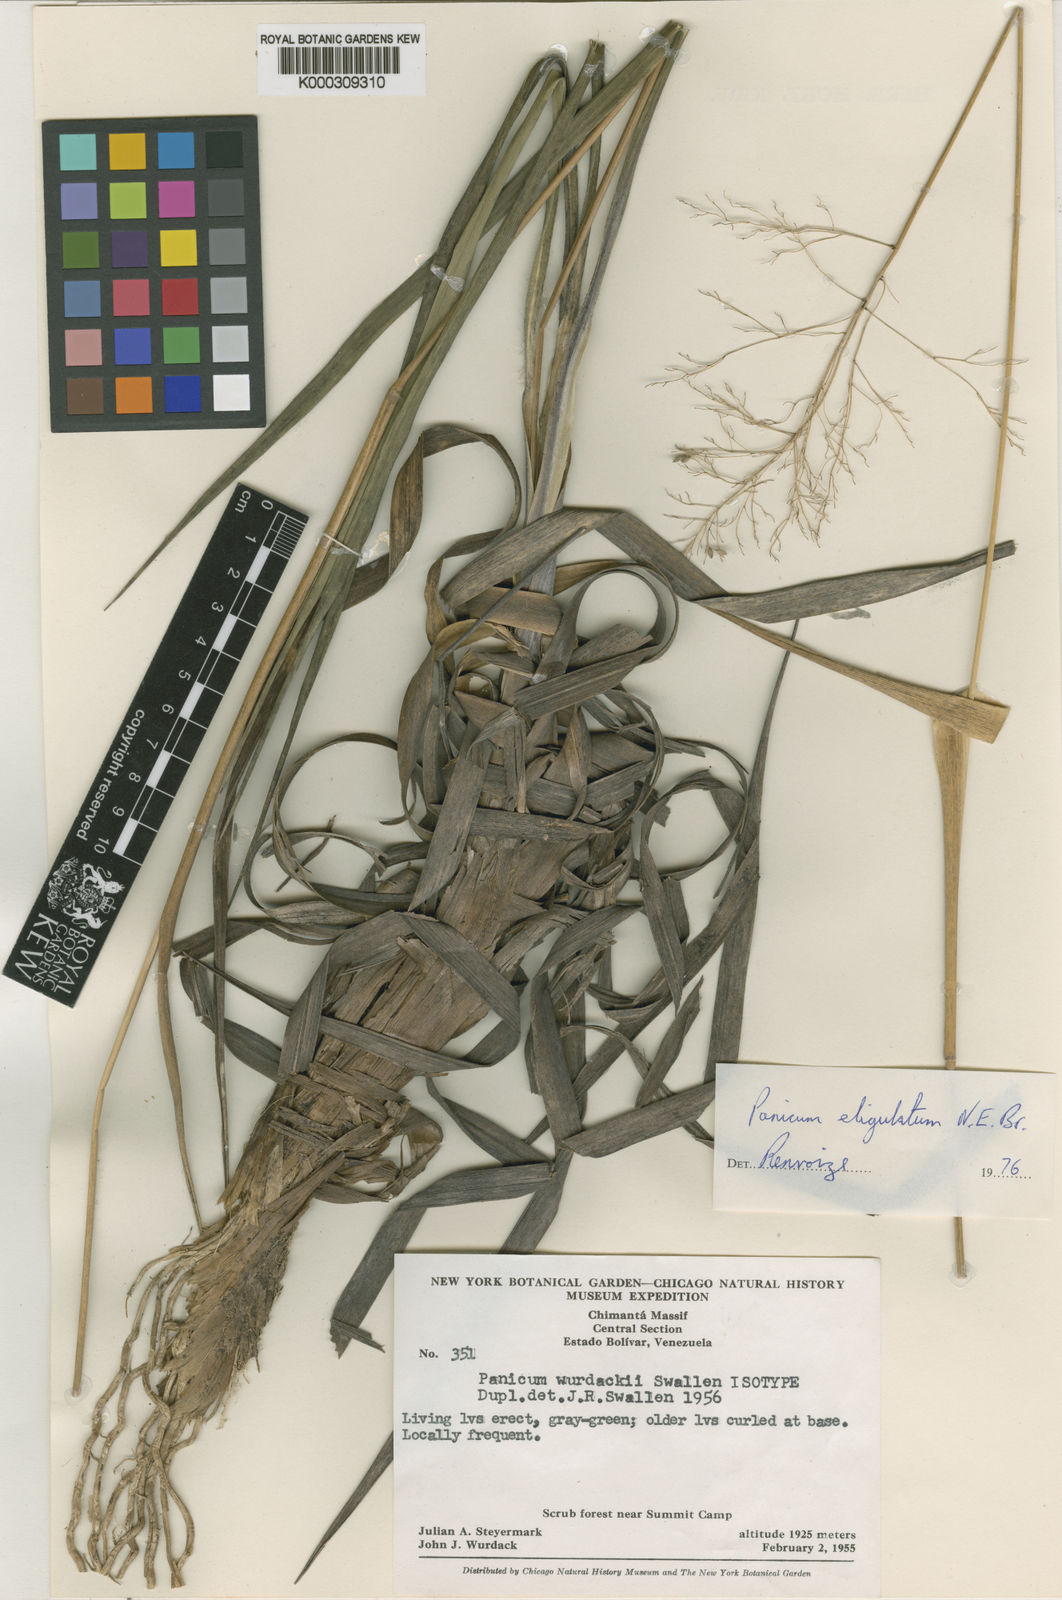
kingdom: Plantae
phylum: Tracheophyta
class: Liliopsida
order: Poales
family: Poaceae
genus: Apochloa
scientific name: Apochloa eligulata
